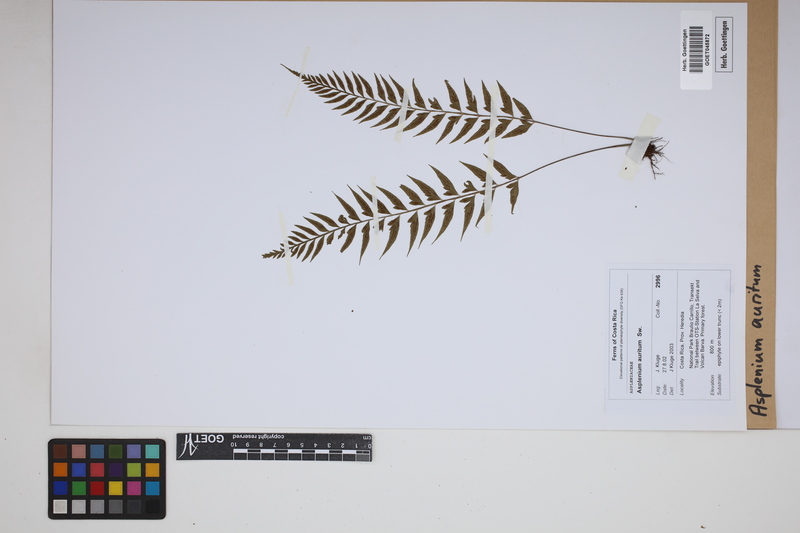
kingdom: Plantae
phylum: Tracheophyta
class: Polypodiopsida
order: Polypodiales
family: Aspleniaceae
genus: Asplenium
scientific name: Asplenium auritum
